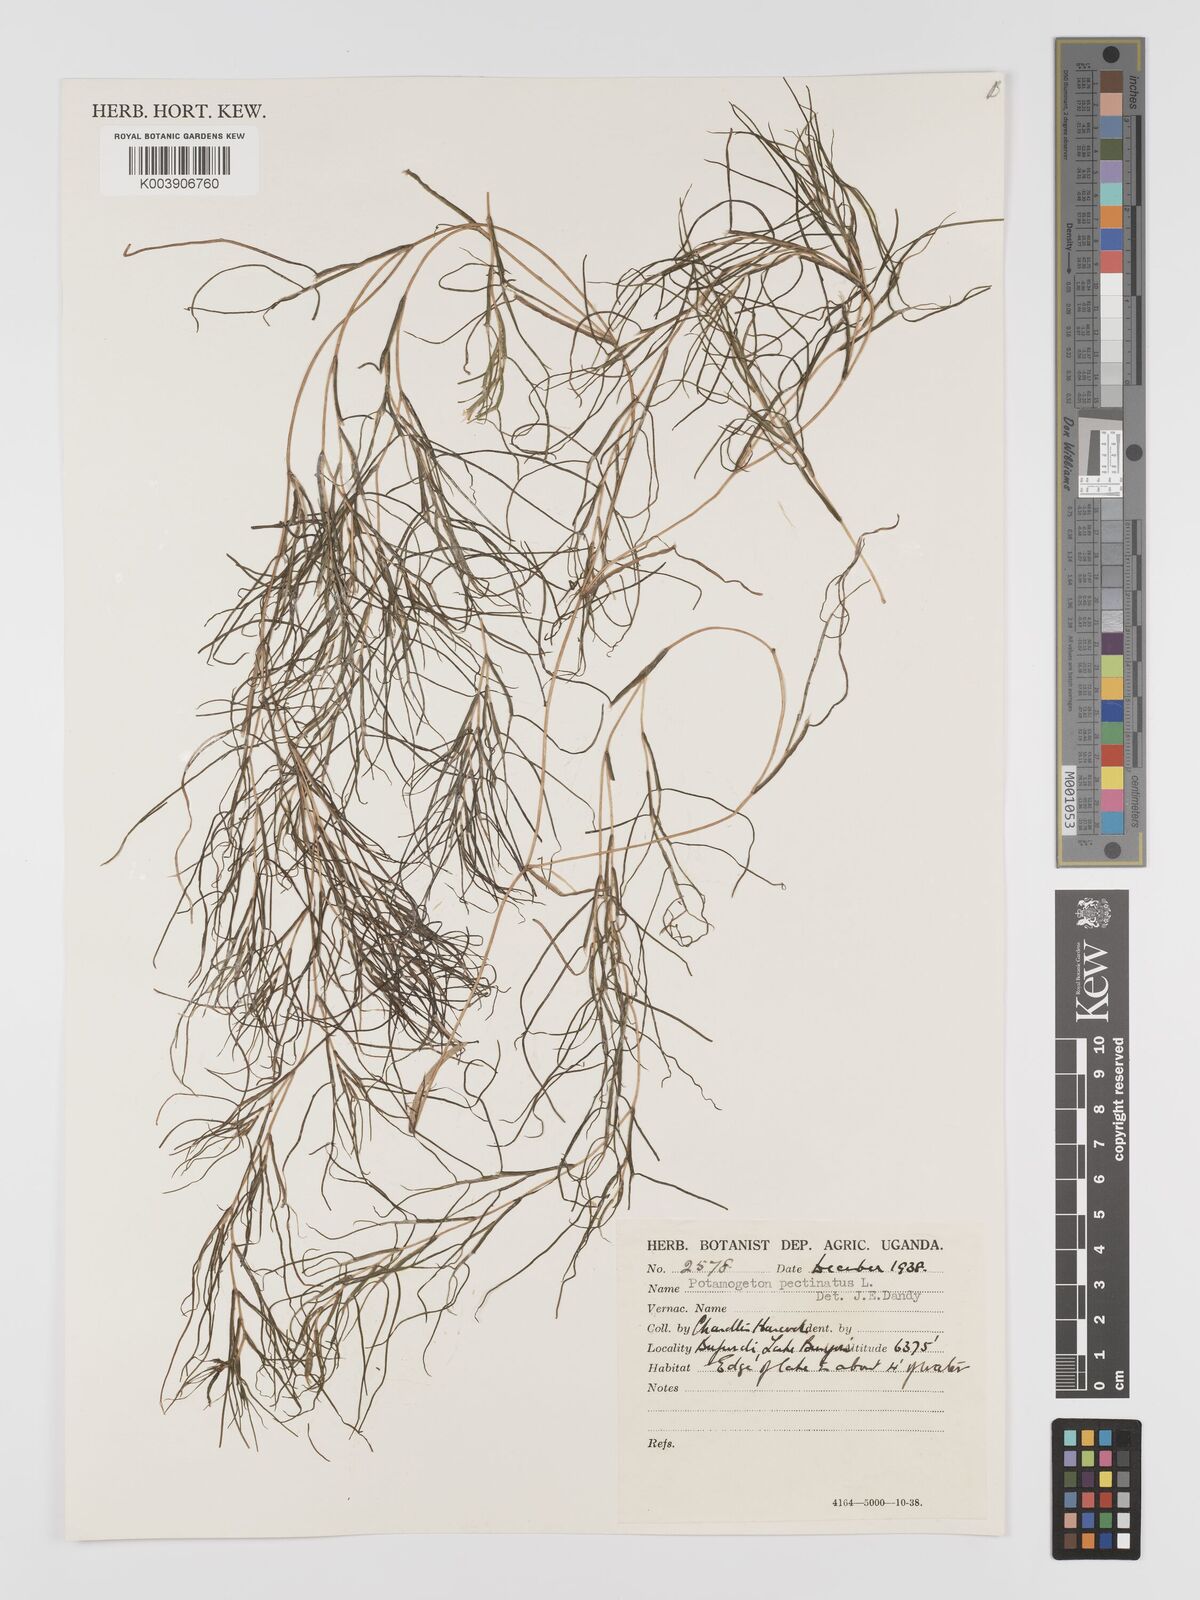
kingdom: Plantae
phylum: Tracheophyta
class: Liliopsida
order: Alismatales
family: Potamogetonaceae
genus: Stuckenia
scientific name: Stuckenia pectinata
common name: Sago pondweed
